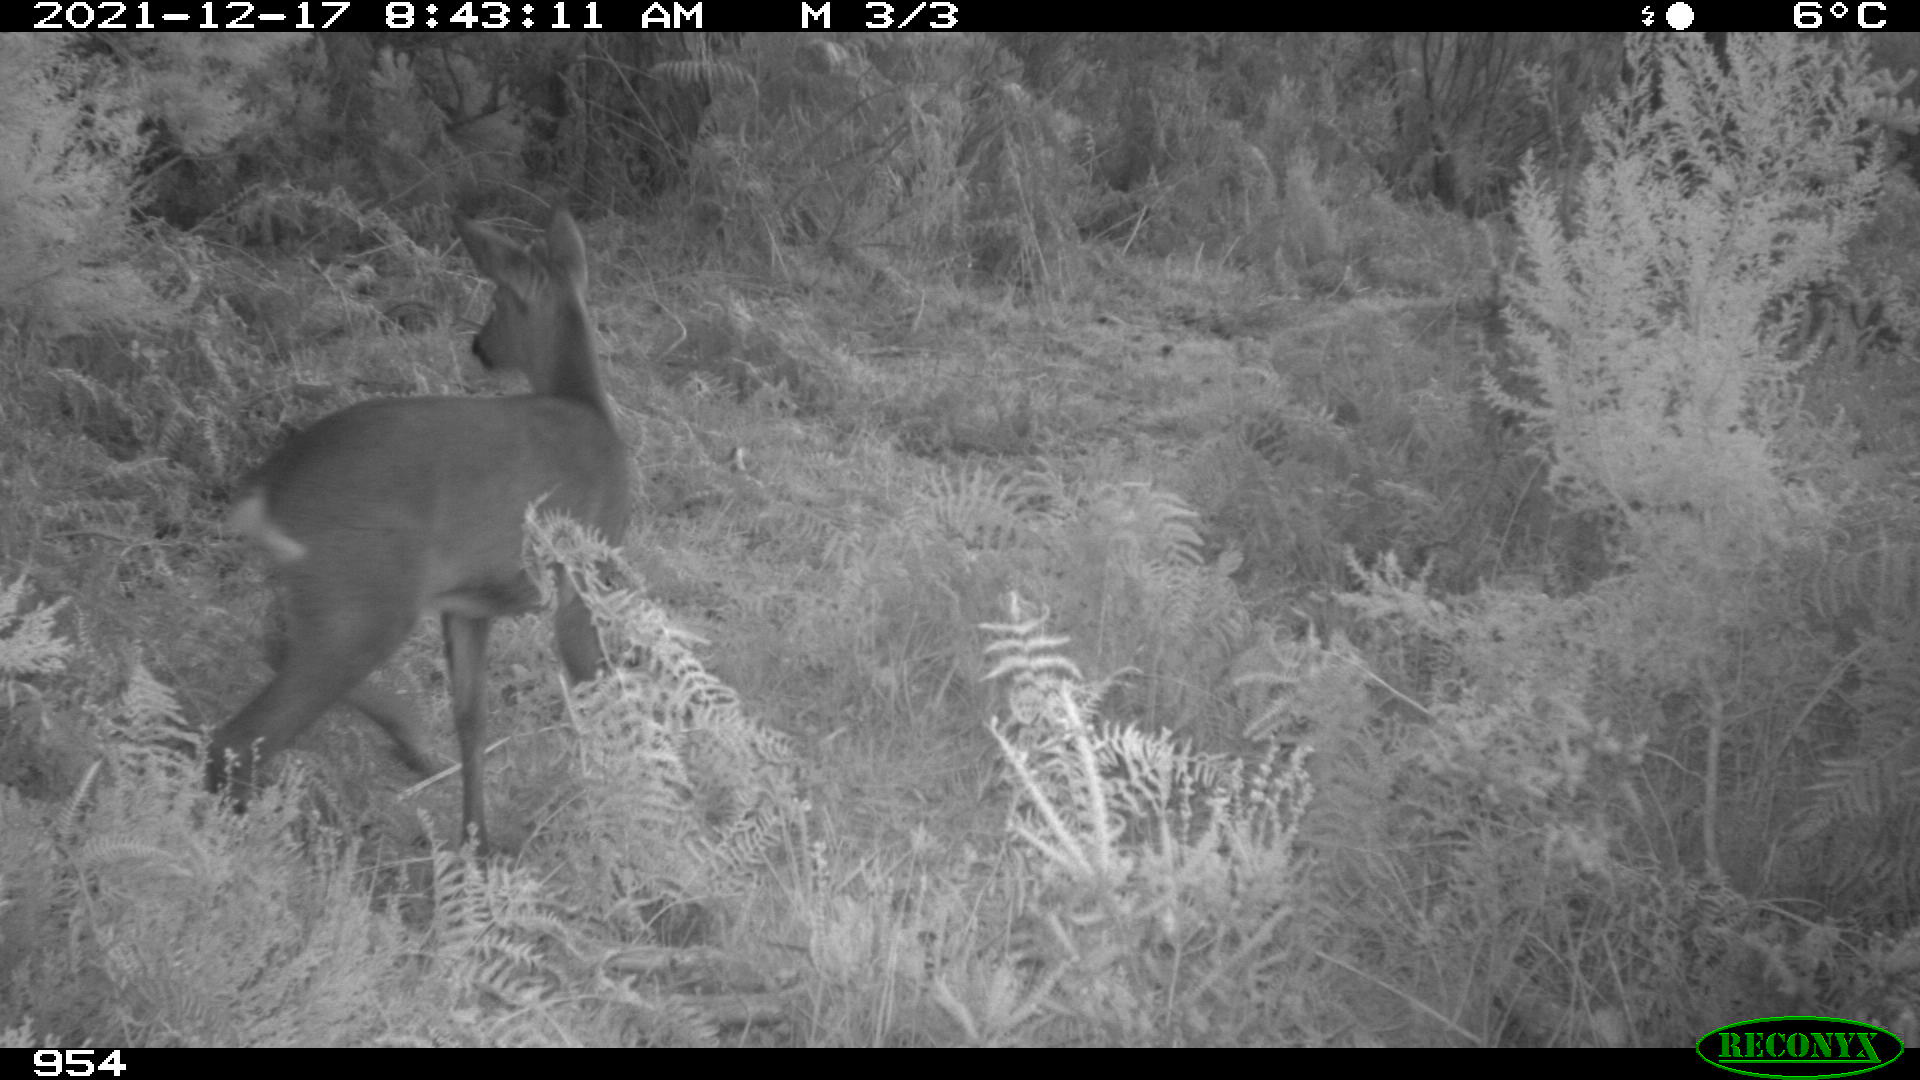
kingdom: Animalia
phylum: Chordata
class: Mammalia
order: Artiodactyla
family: Cervidae
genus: Capreolus
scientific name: Capreolus capreolus
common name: Western roe deer
